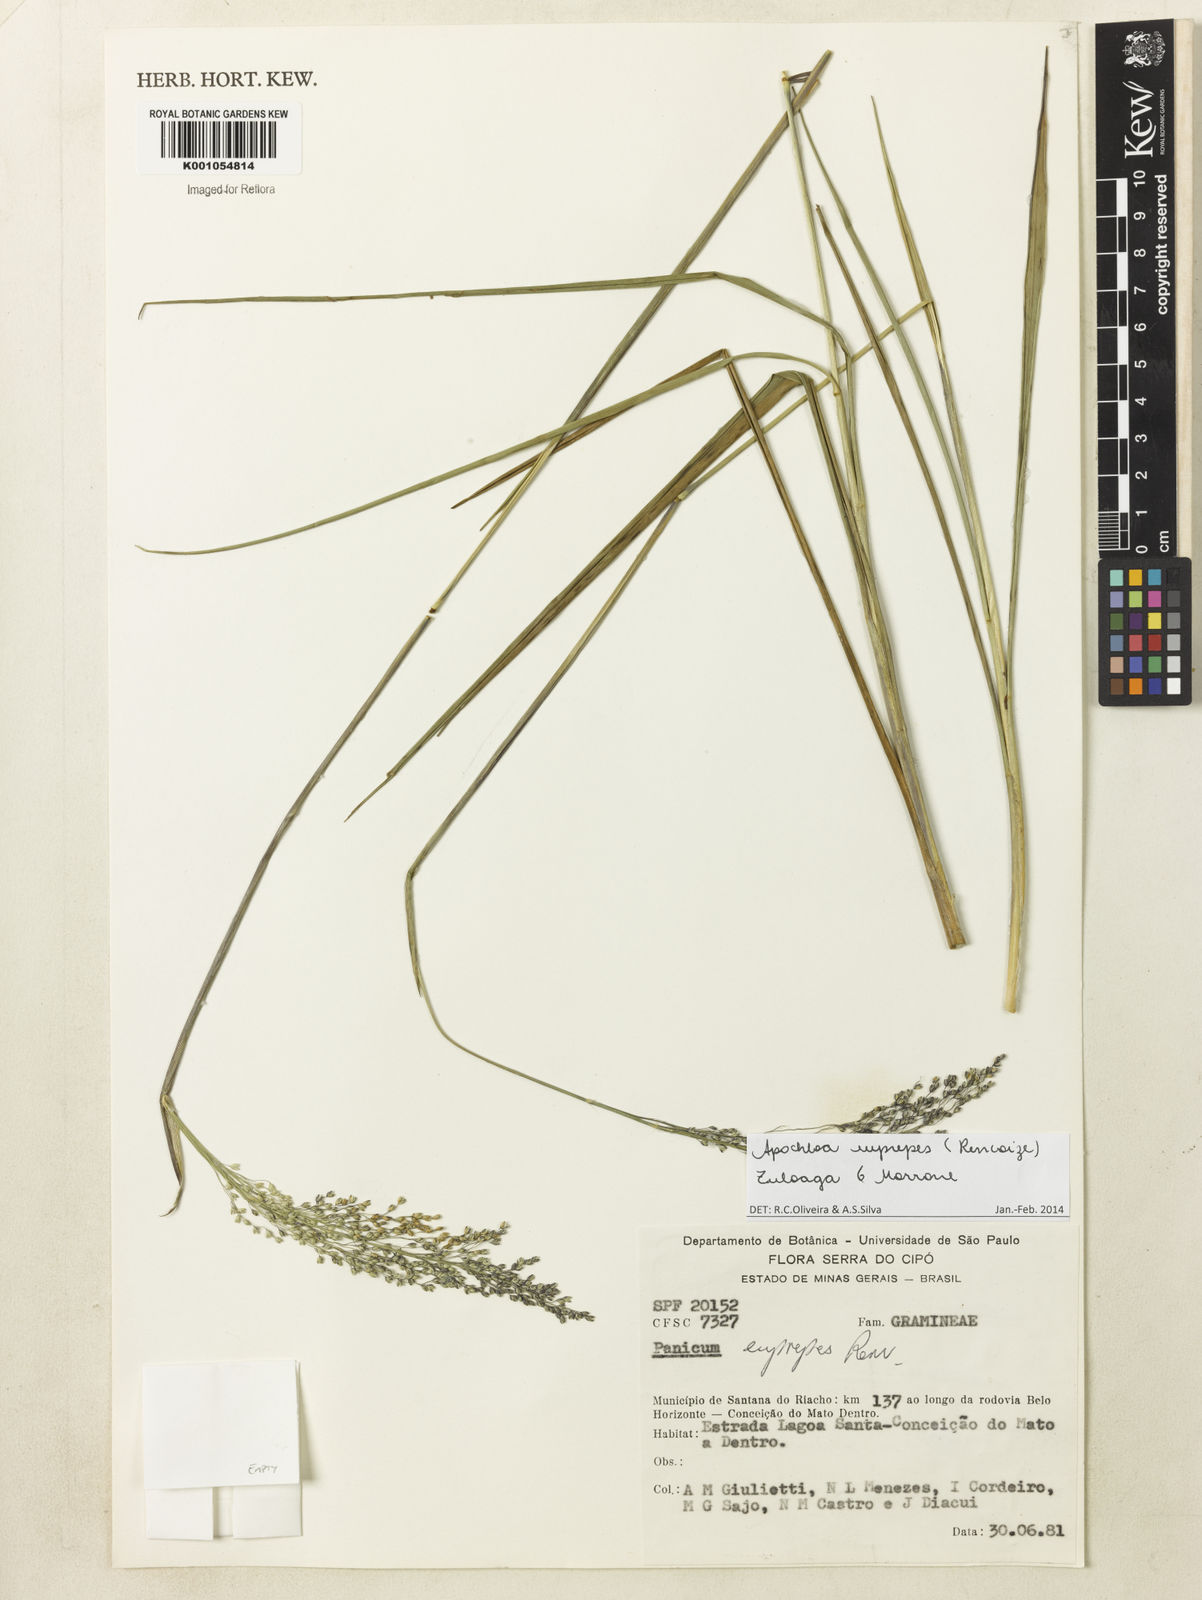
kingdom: Plantae
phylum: Tracheophyta
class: Liliopsida
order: Poales
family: Poaceae
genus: Apochloa
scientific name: Apochloa euprepes
